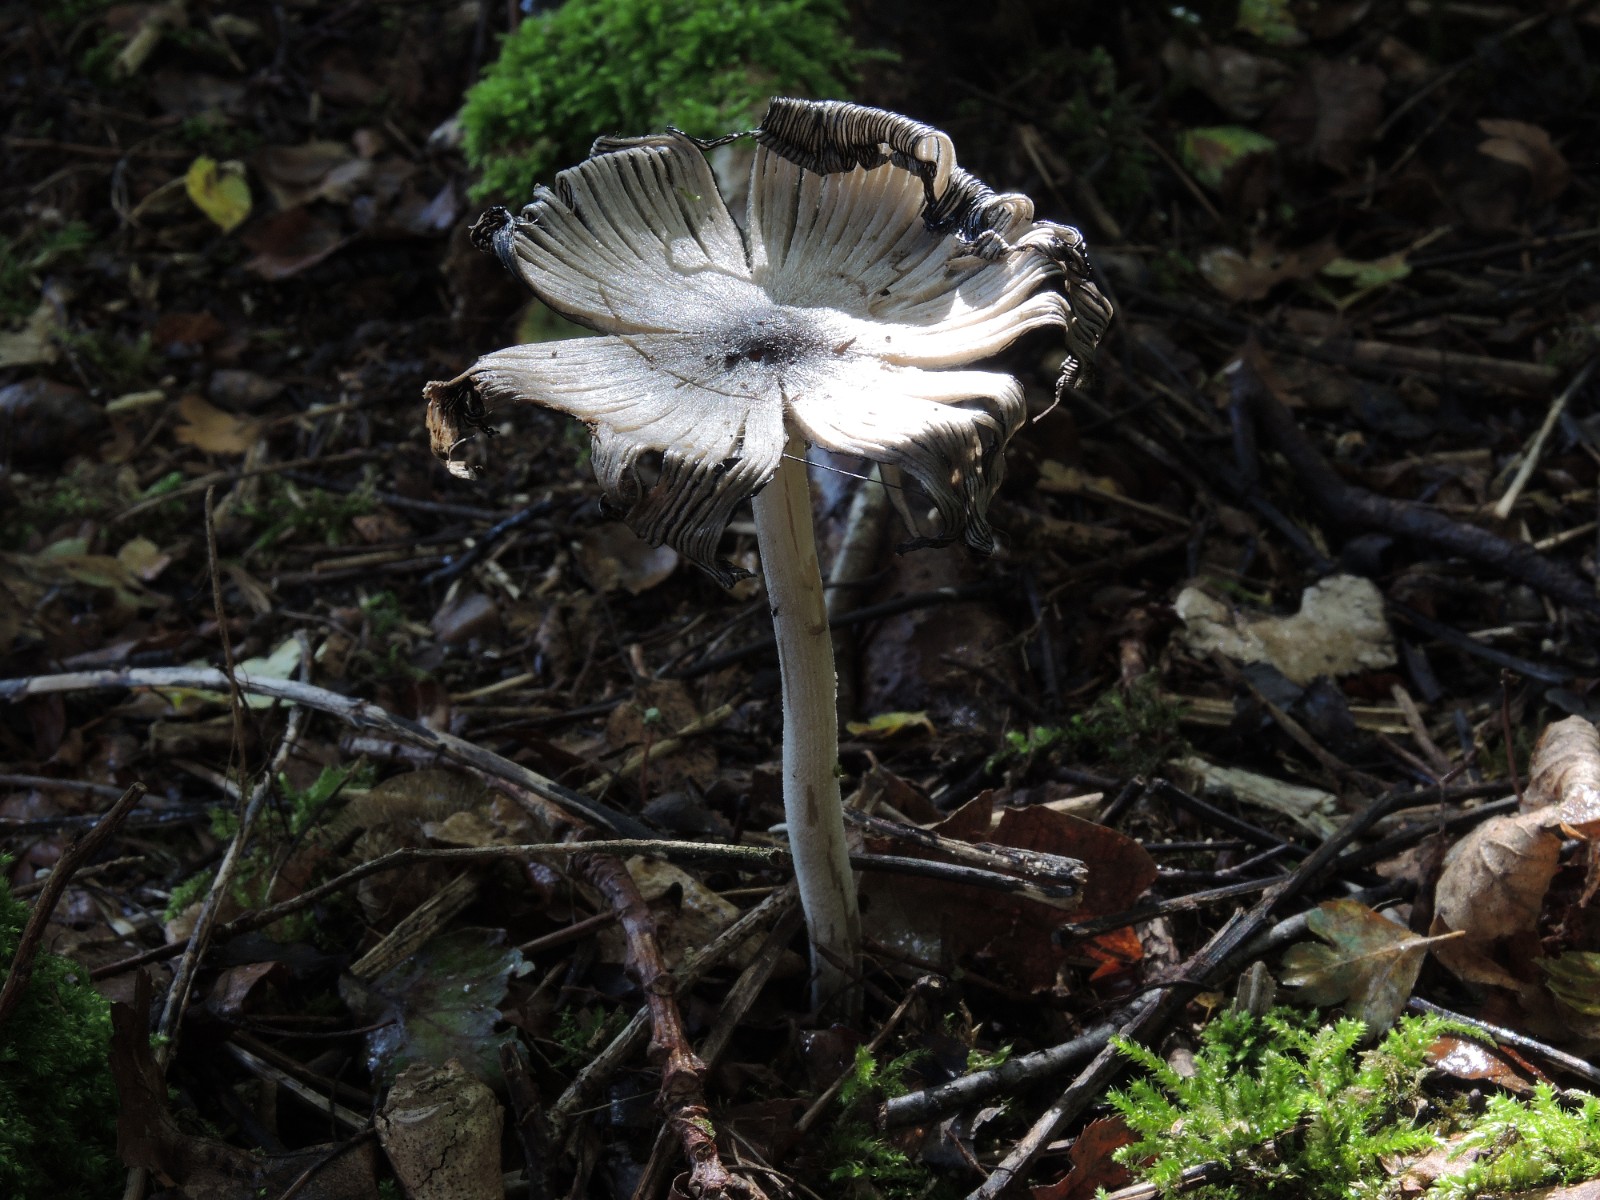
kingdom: Fungi
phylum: Basidiomycota
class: Agaricomycetes
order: Agaricales
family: Psathyrellaceae
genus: Coprinopsis
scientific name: Coprinopsis insignis
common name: stor blækhat
